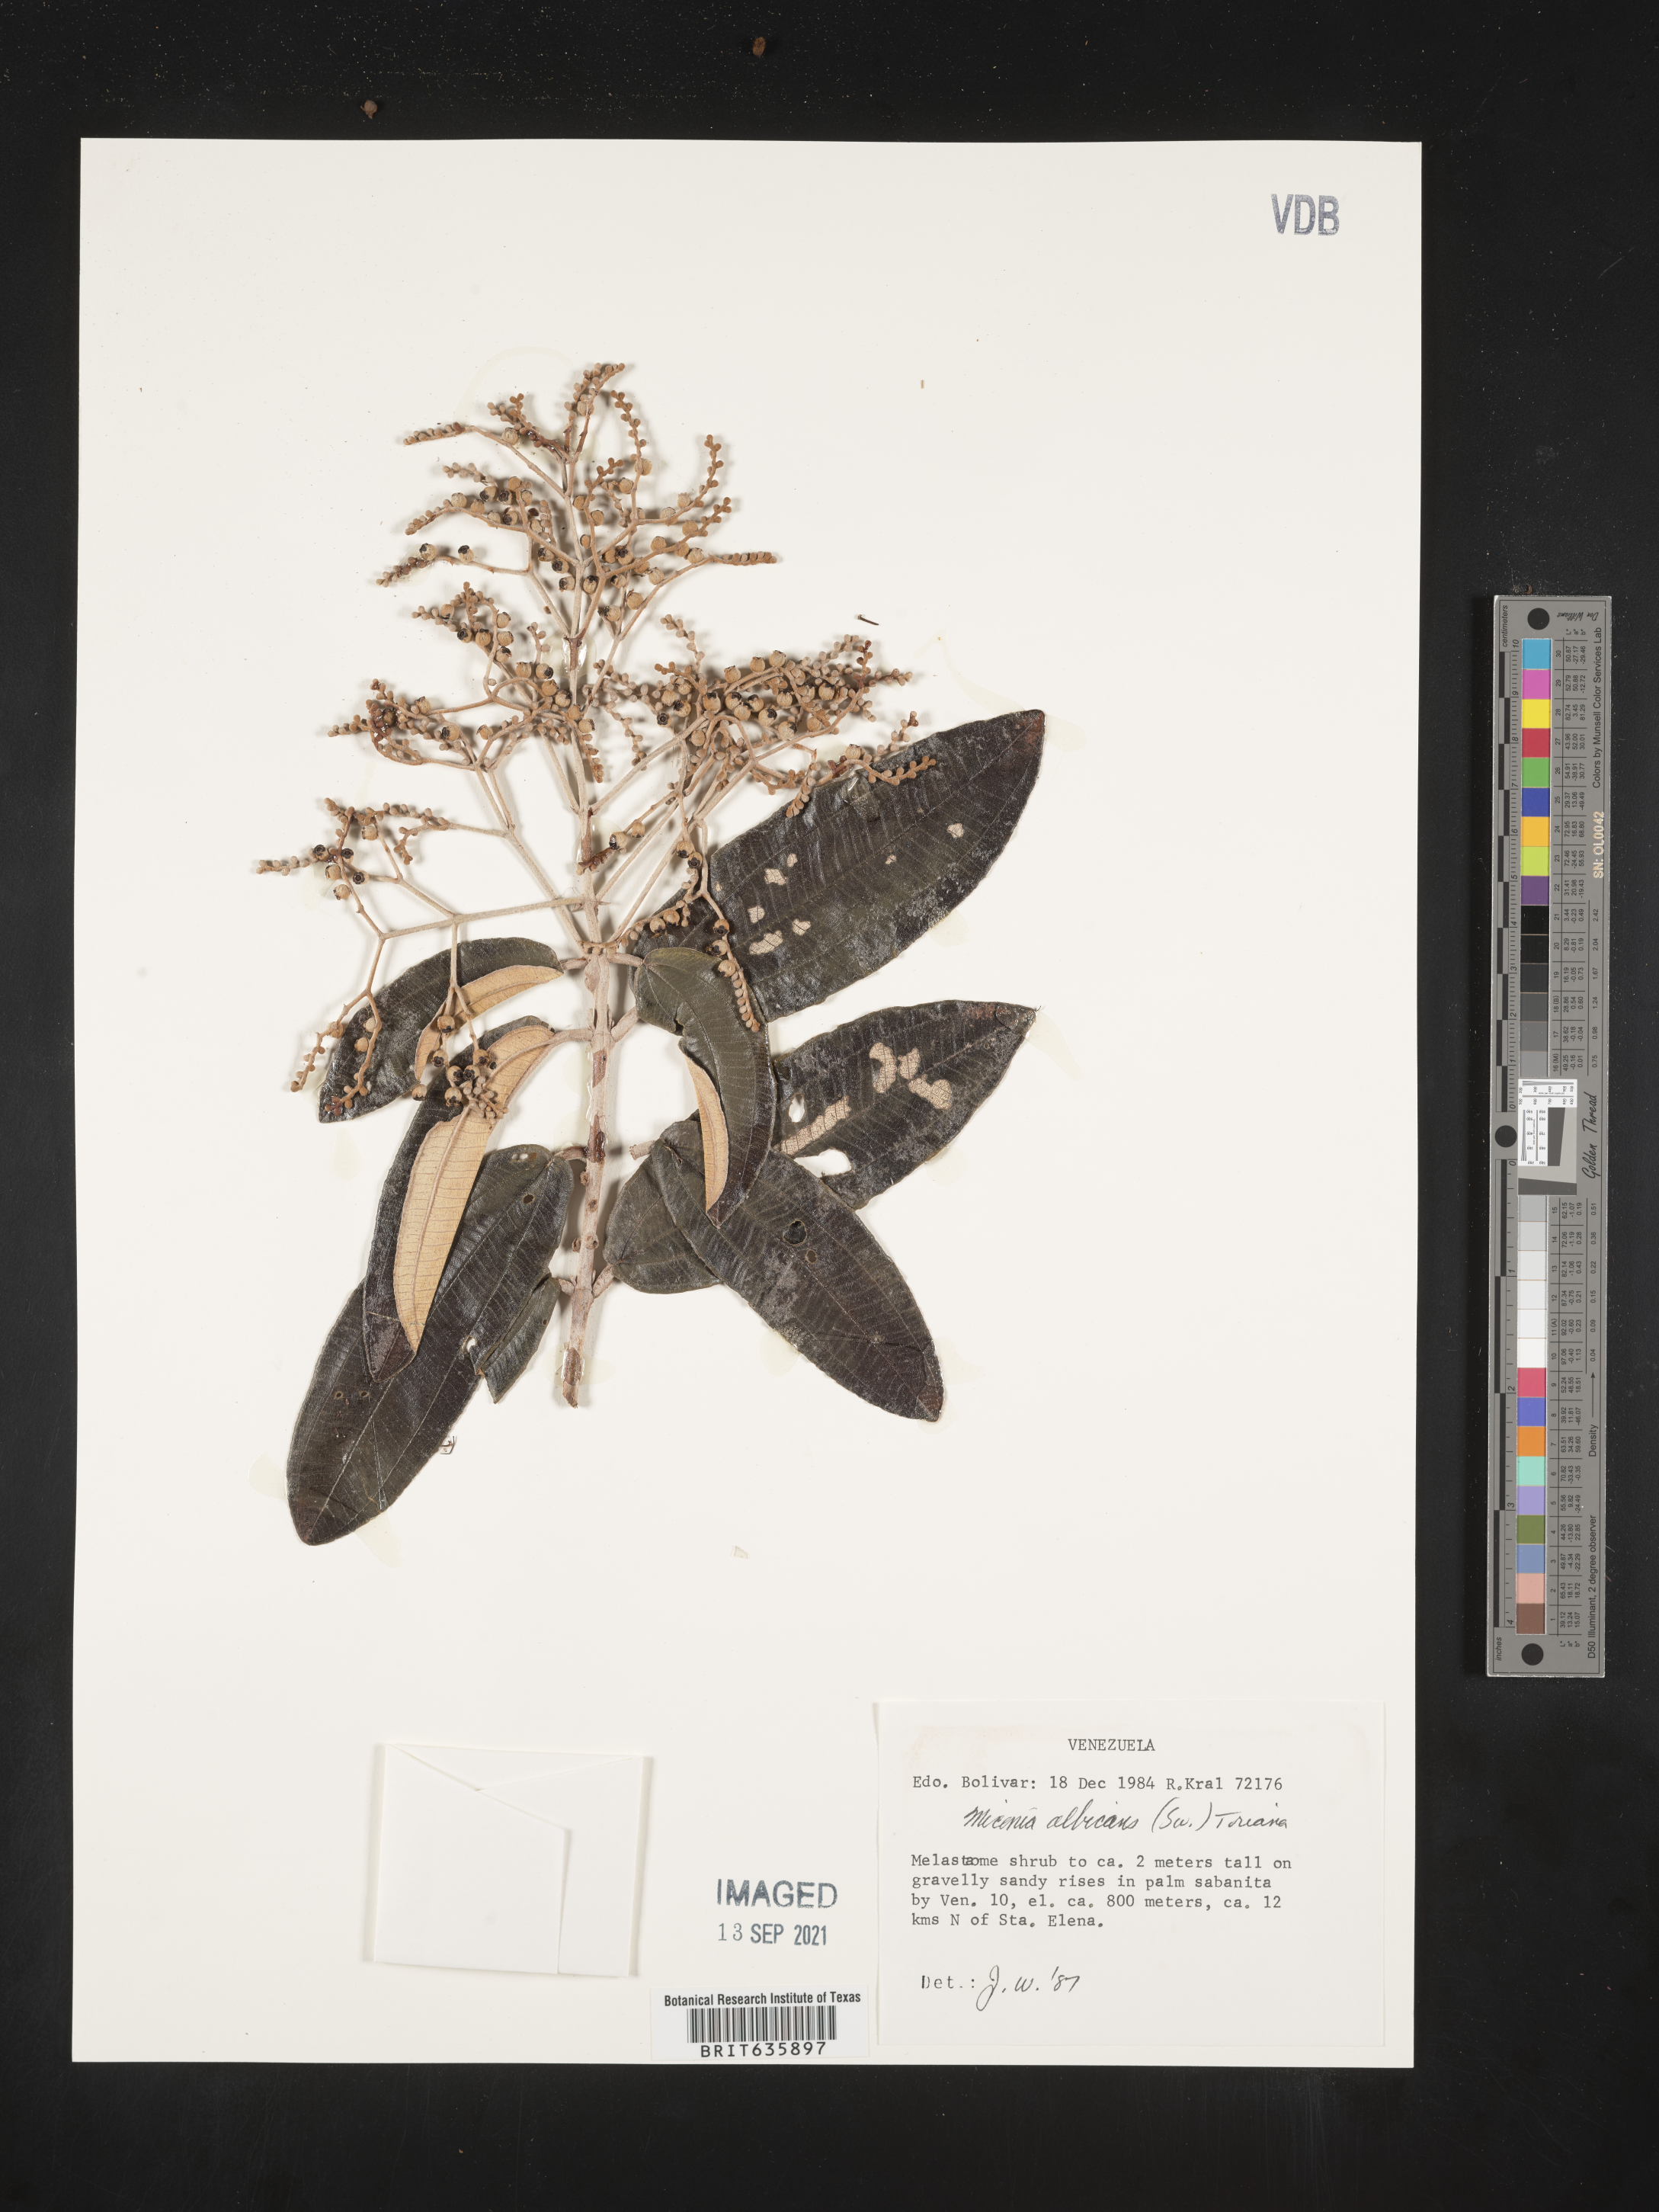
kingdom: Plantae
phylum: Tracheophyta
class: Magnoliopsida
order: Myrtales
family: Melastomataceae
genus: Miconia
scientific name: Miconia
